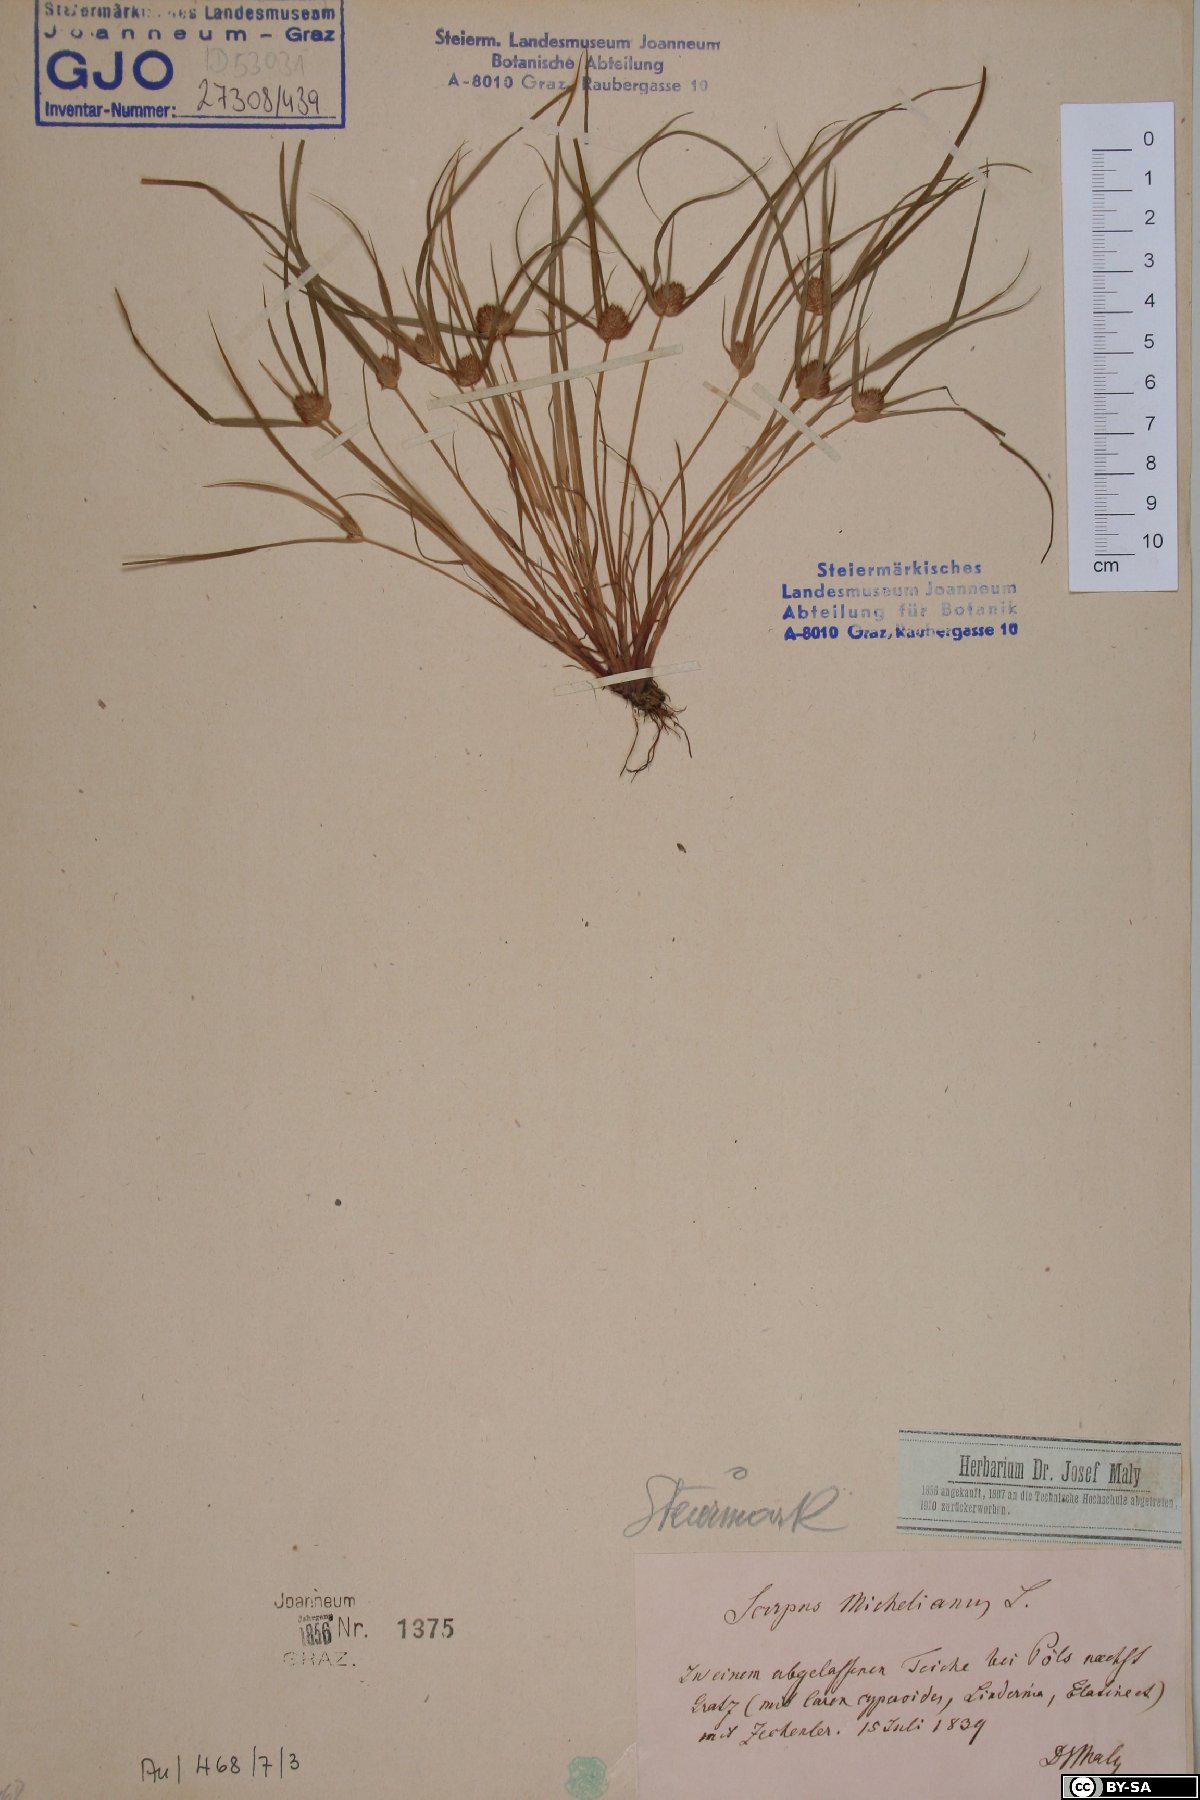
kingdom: Plantae
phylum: Tracheophyta
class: Liliopsida
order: Poales
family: Cyperaceae
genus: Cyperus
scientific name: Cyperus michelianus
